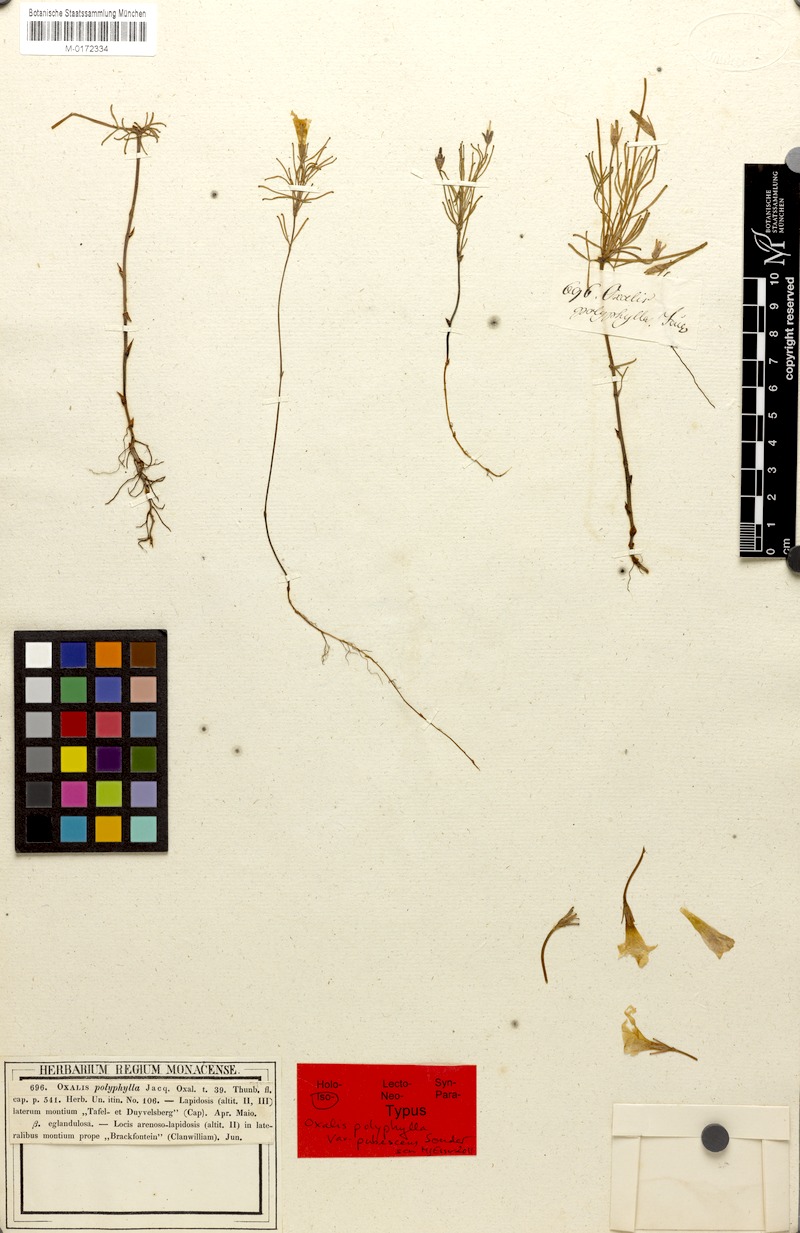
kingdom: Plantae
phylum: Tracheophyta
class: Magnoliopsida
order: Oxalidales
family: Oxalidaceae
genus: Oxalis
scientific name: Oxalis polyphylla
